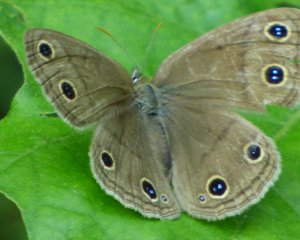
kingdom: Animalia
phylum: Arthropoda
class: Insecta
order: Lepidoptera
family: Nymphalidae
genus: Euptychia
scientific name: Euptychia cymela
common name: Little Wood Satyr
